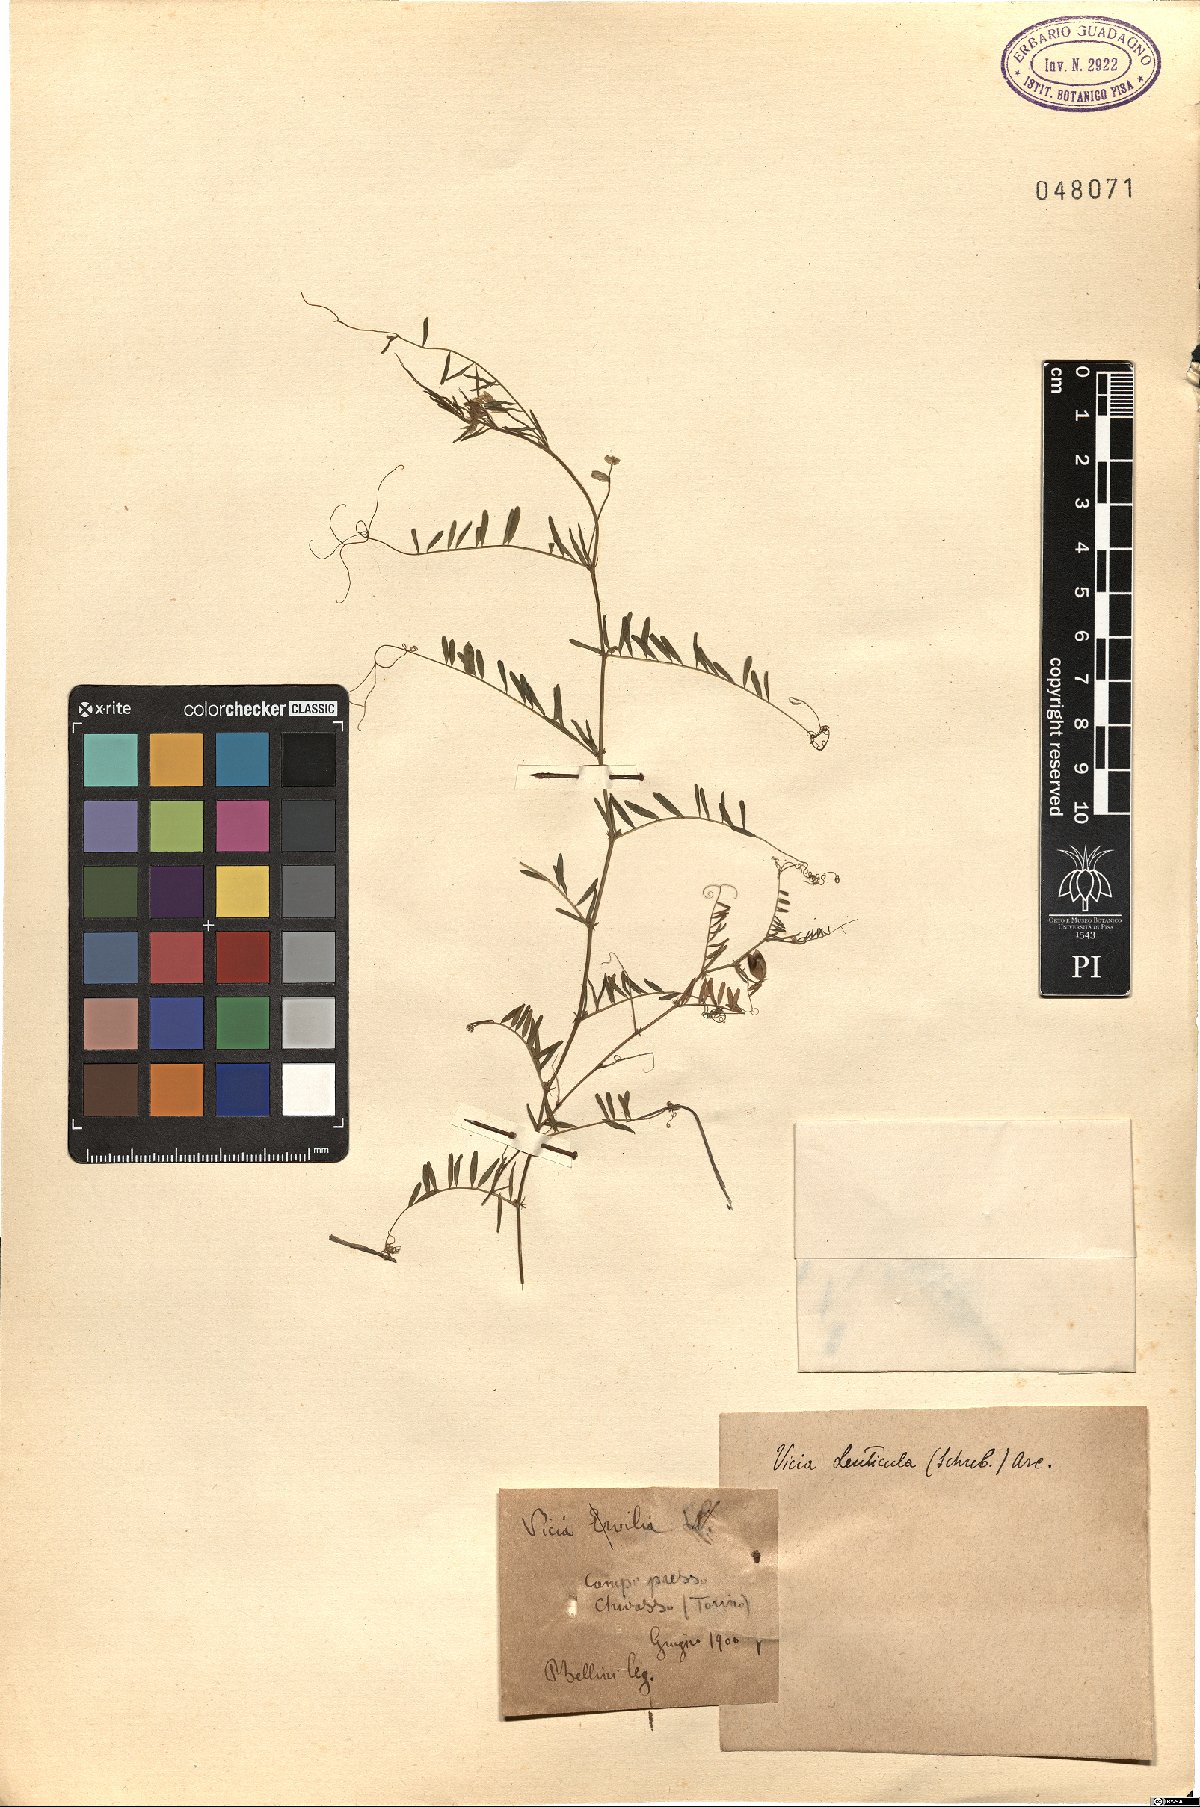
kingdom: Plantae
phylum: Tracheophyta
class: Magnoliopsida
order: Fabales
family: Fabaceae
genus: Vicia
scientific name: Vicia lenticula
